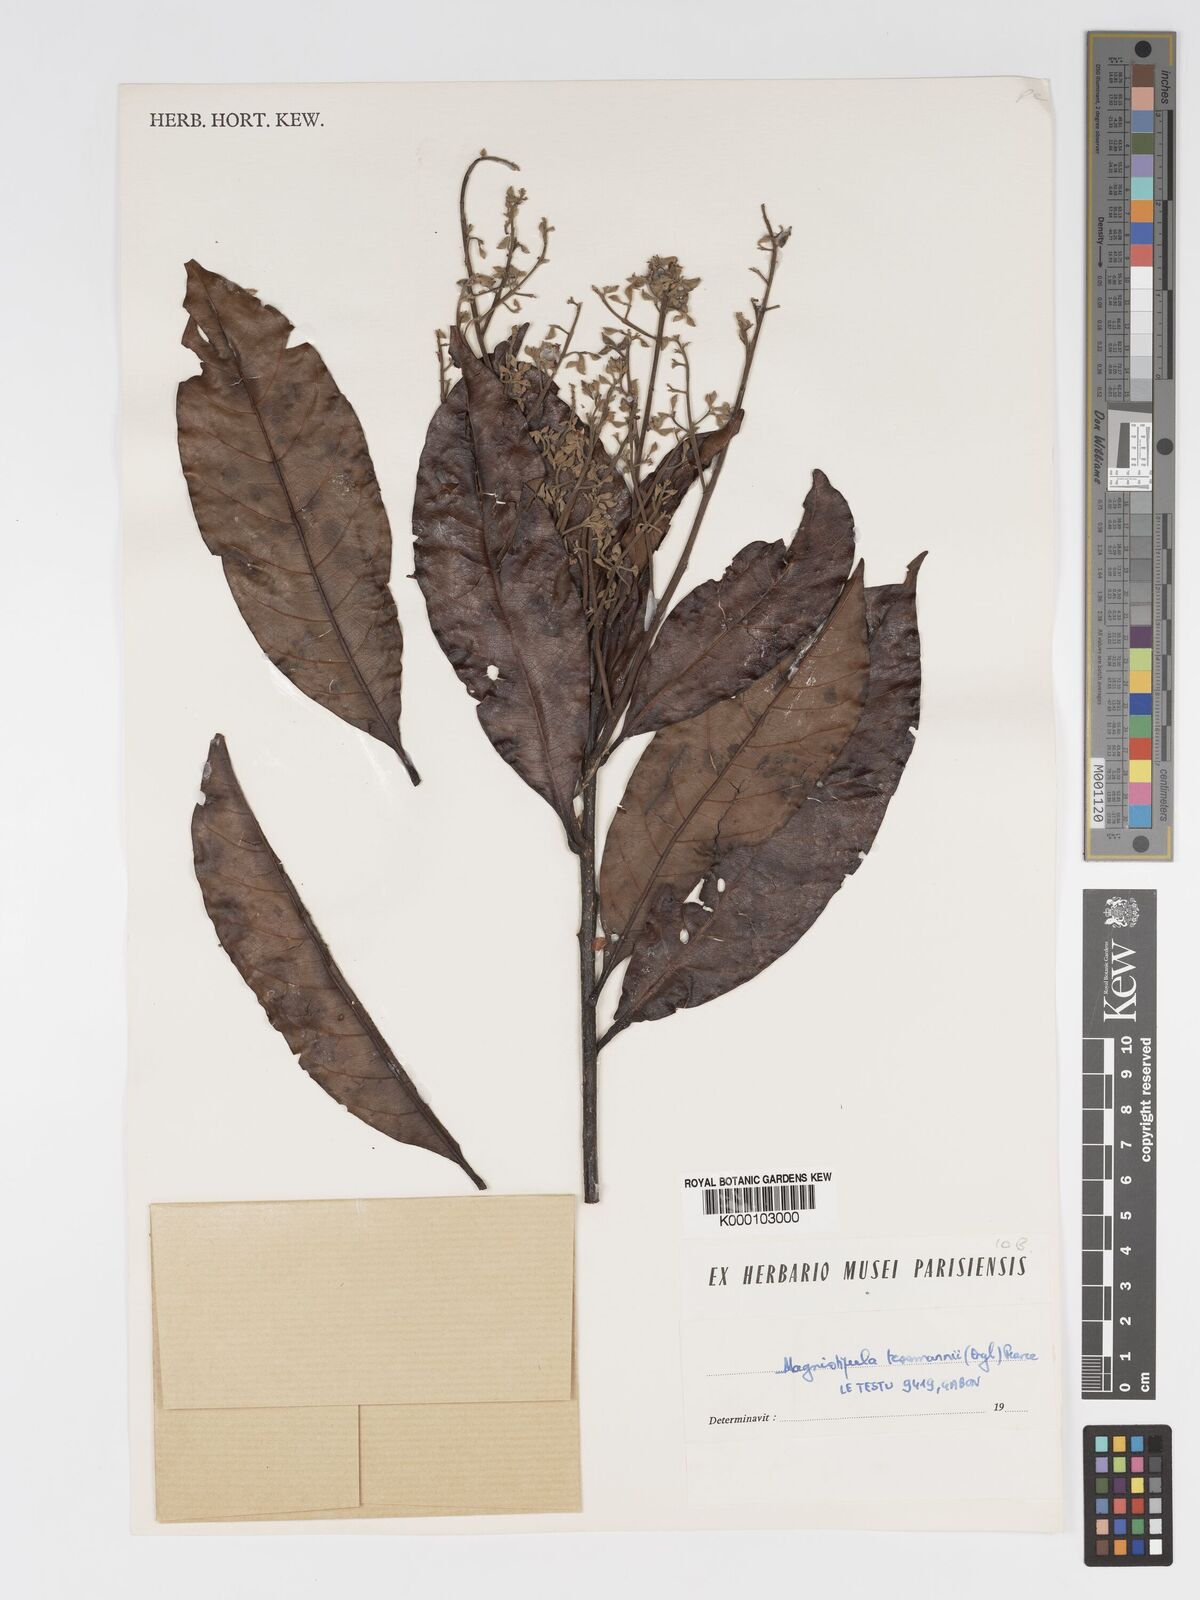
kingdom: Plantae
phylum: Tracheophyta
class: Magnoliopsida
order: Malpighiales
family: Chrysobalanaceae
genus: Magnistipula
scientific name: Magnistipula tessmannii
